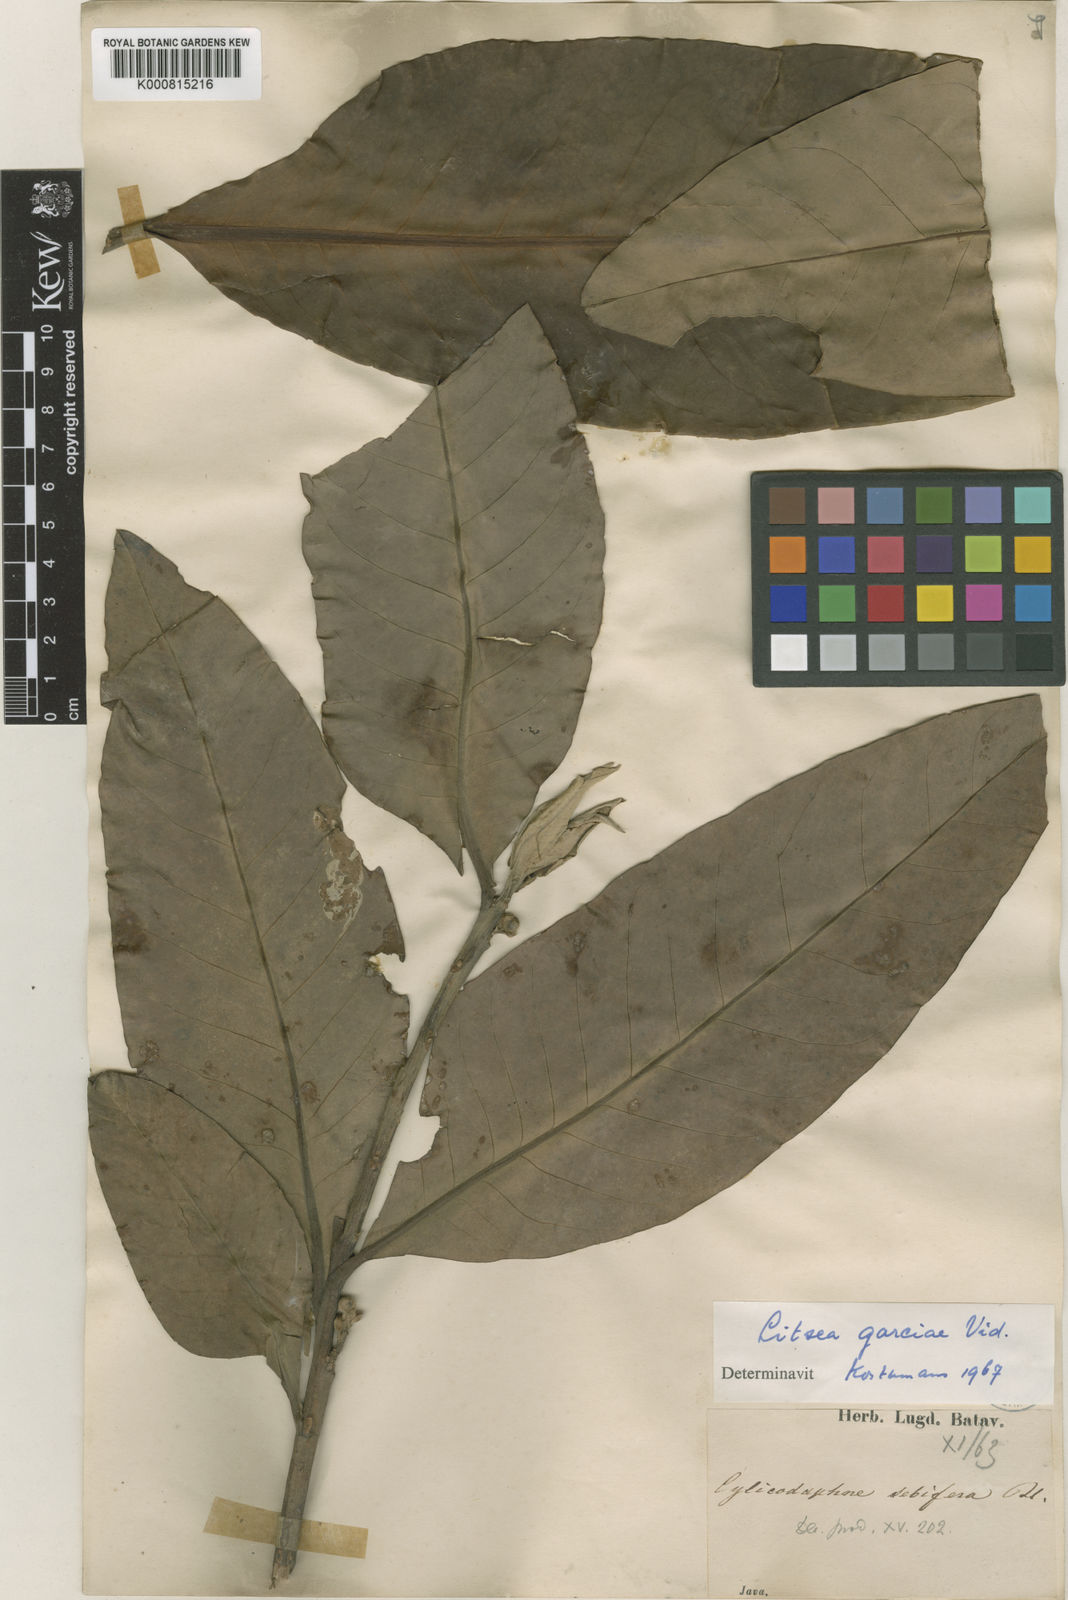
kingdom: Plantae
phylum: Tracheophyta
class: Magnoliopsida
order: Laurales
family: Lauraceae
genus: Litsea
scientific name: Litsea garciae
